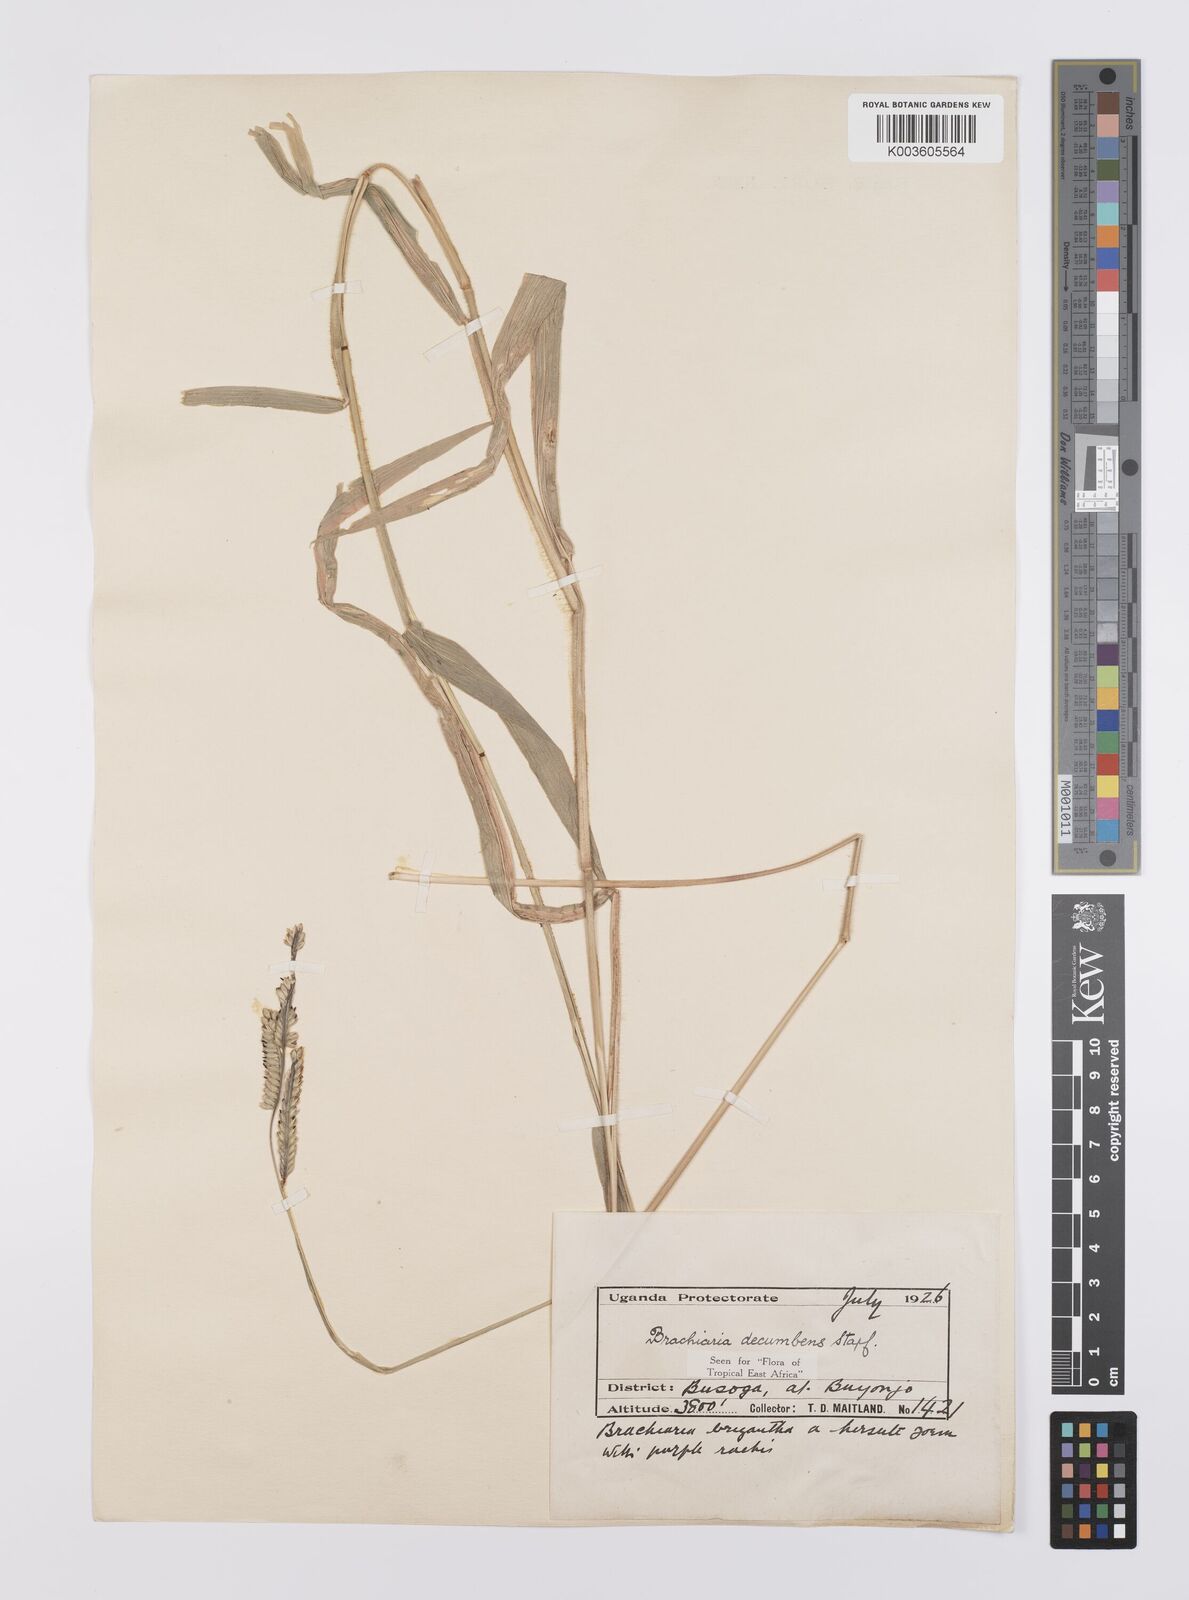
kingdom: Plantae
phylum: Tracheophyta
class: Liliopsida
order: Poales
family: Poaceae
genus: Urochloa
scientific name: Urochloa eminii
